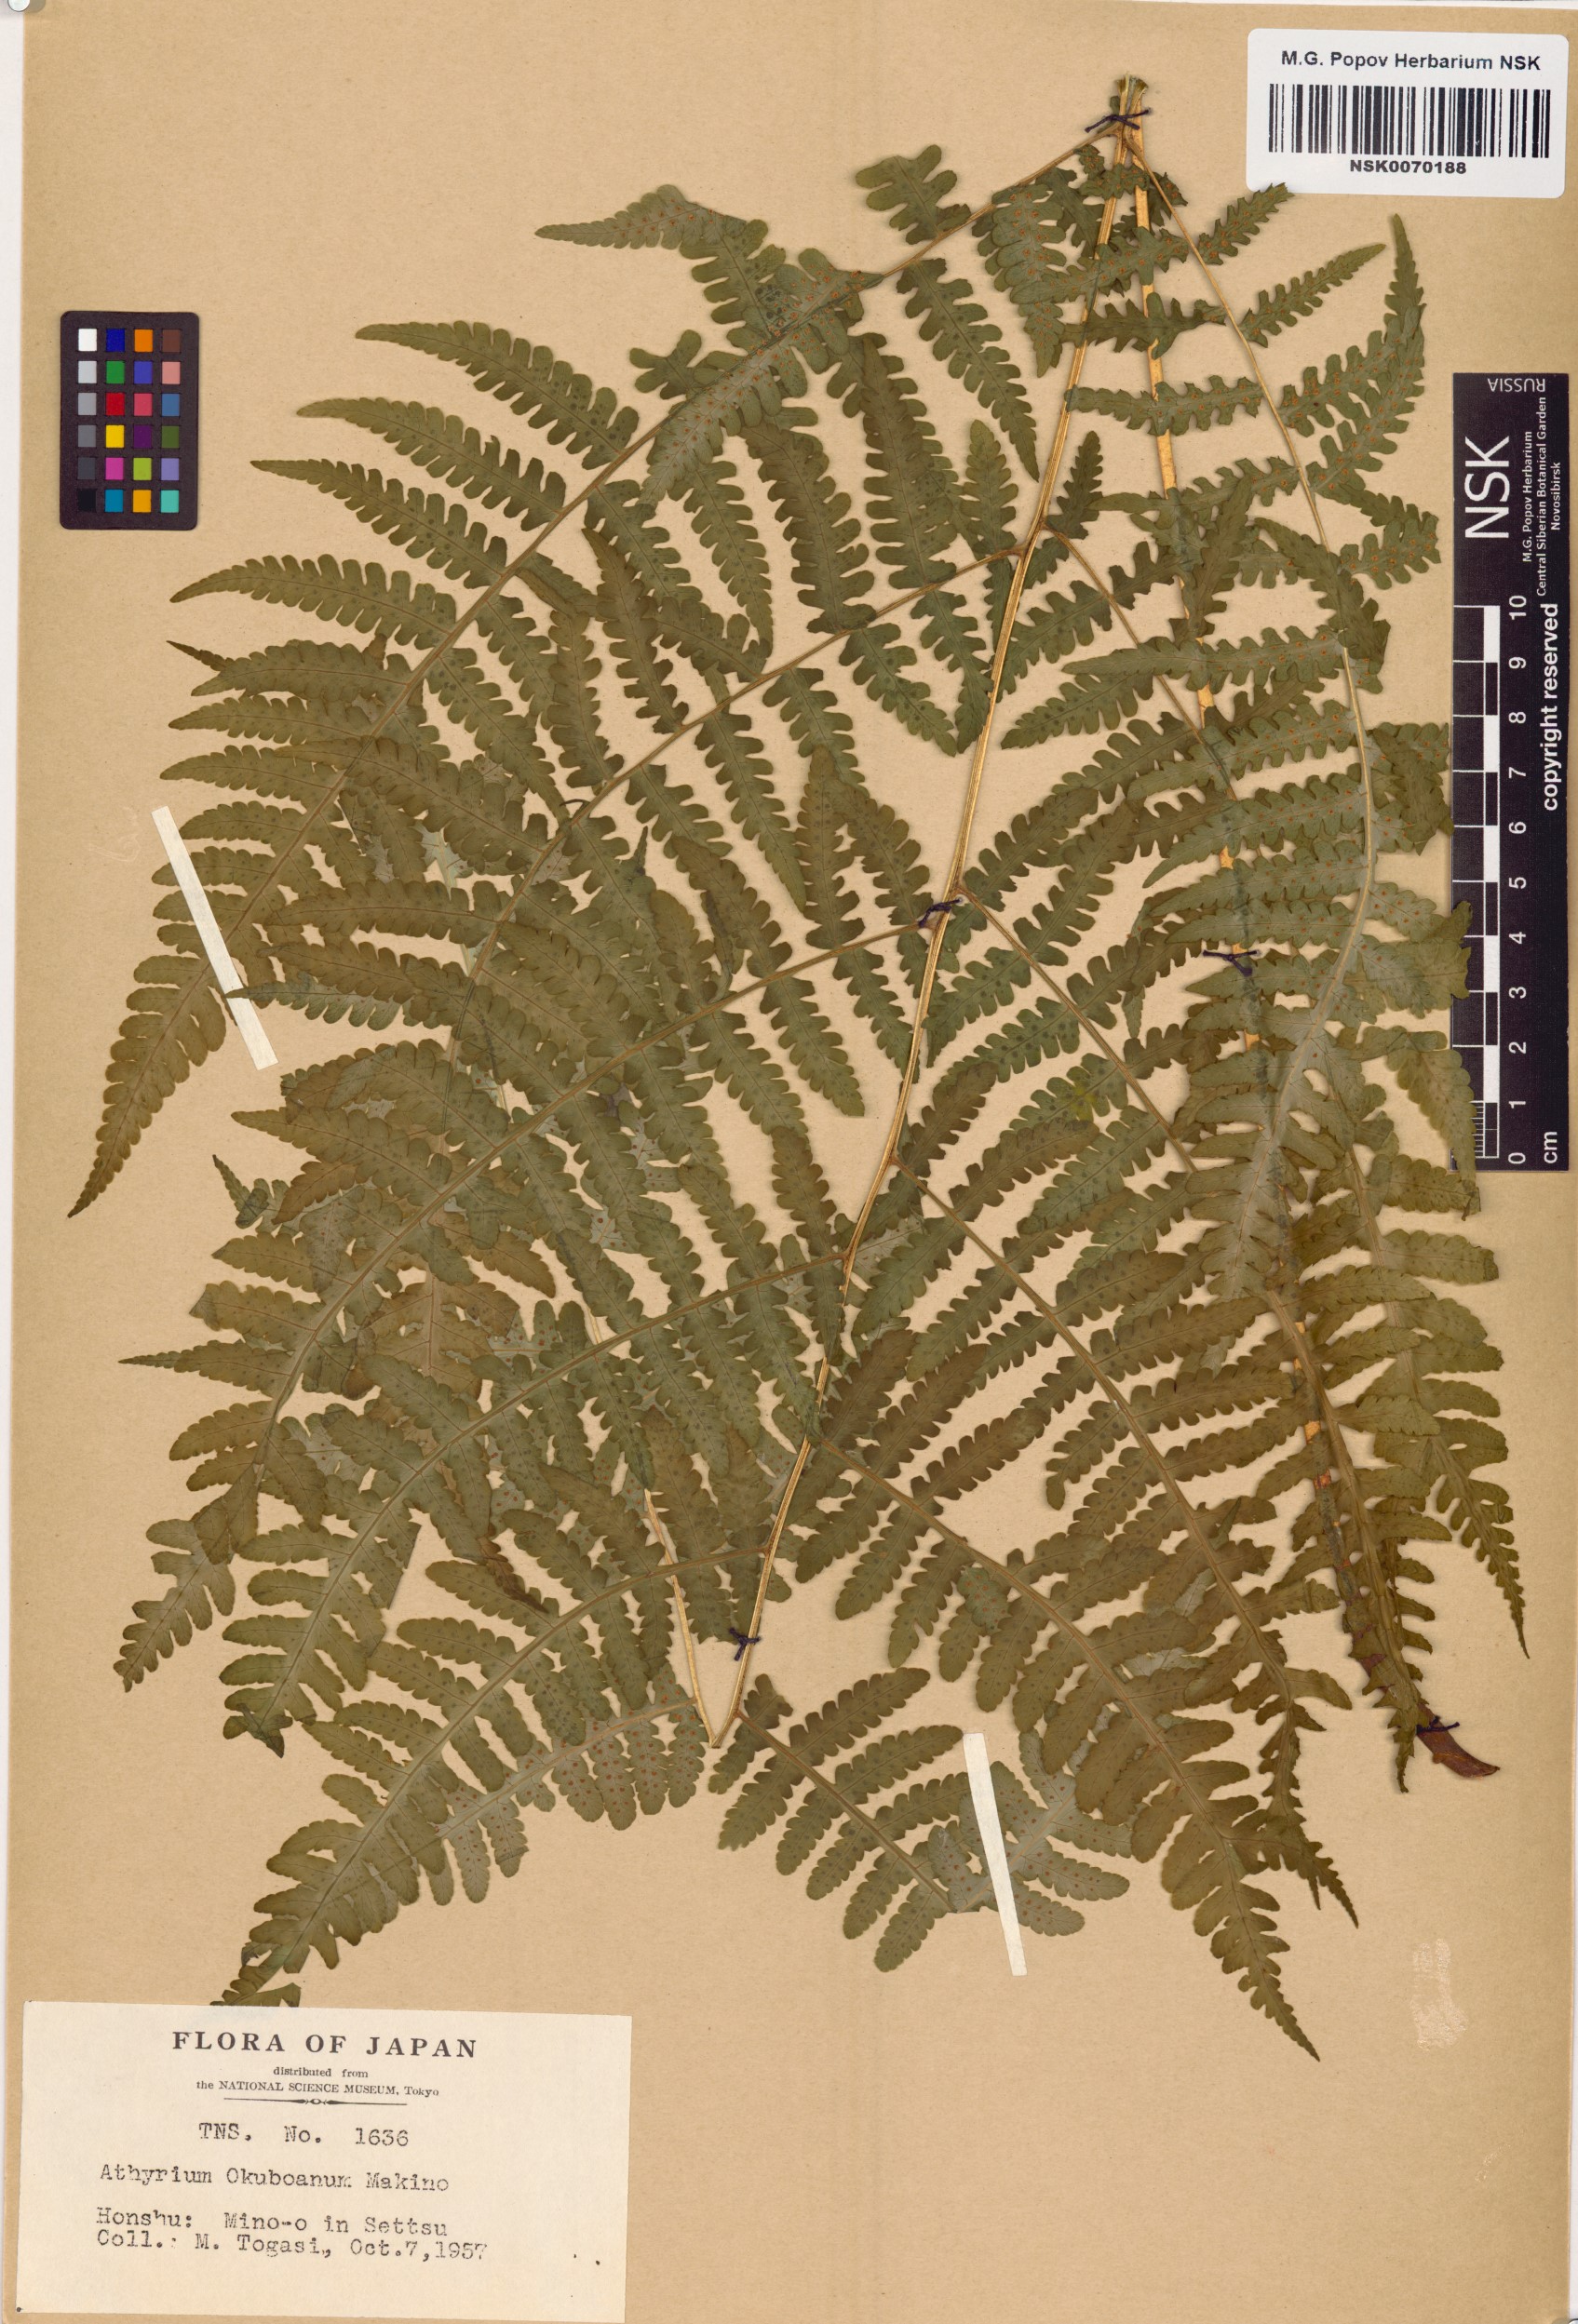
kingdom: Plantae
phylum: Tracheophyta
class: Polypodiopsida
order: Polypodiales
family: Athyriaceae
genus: Deparia
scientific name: Deparia okuboana
